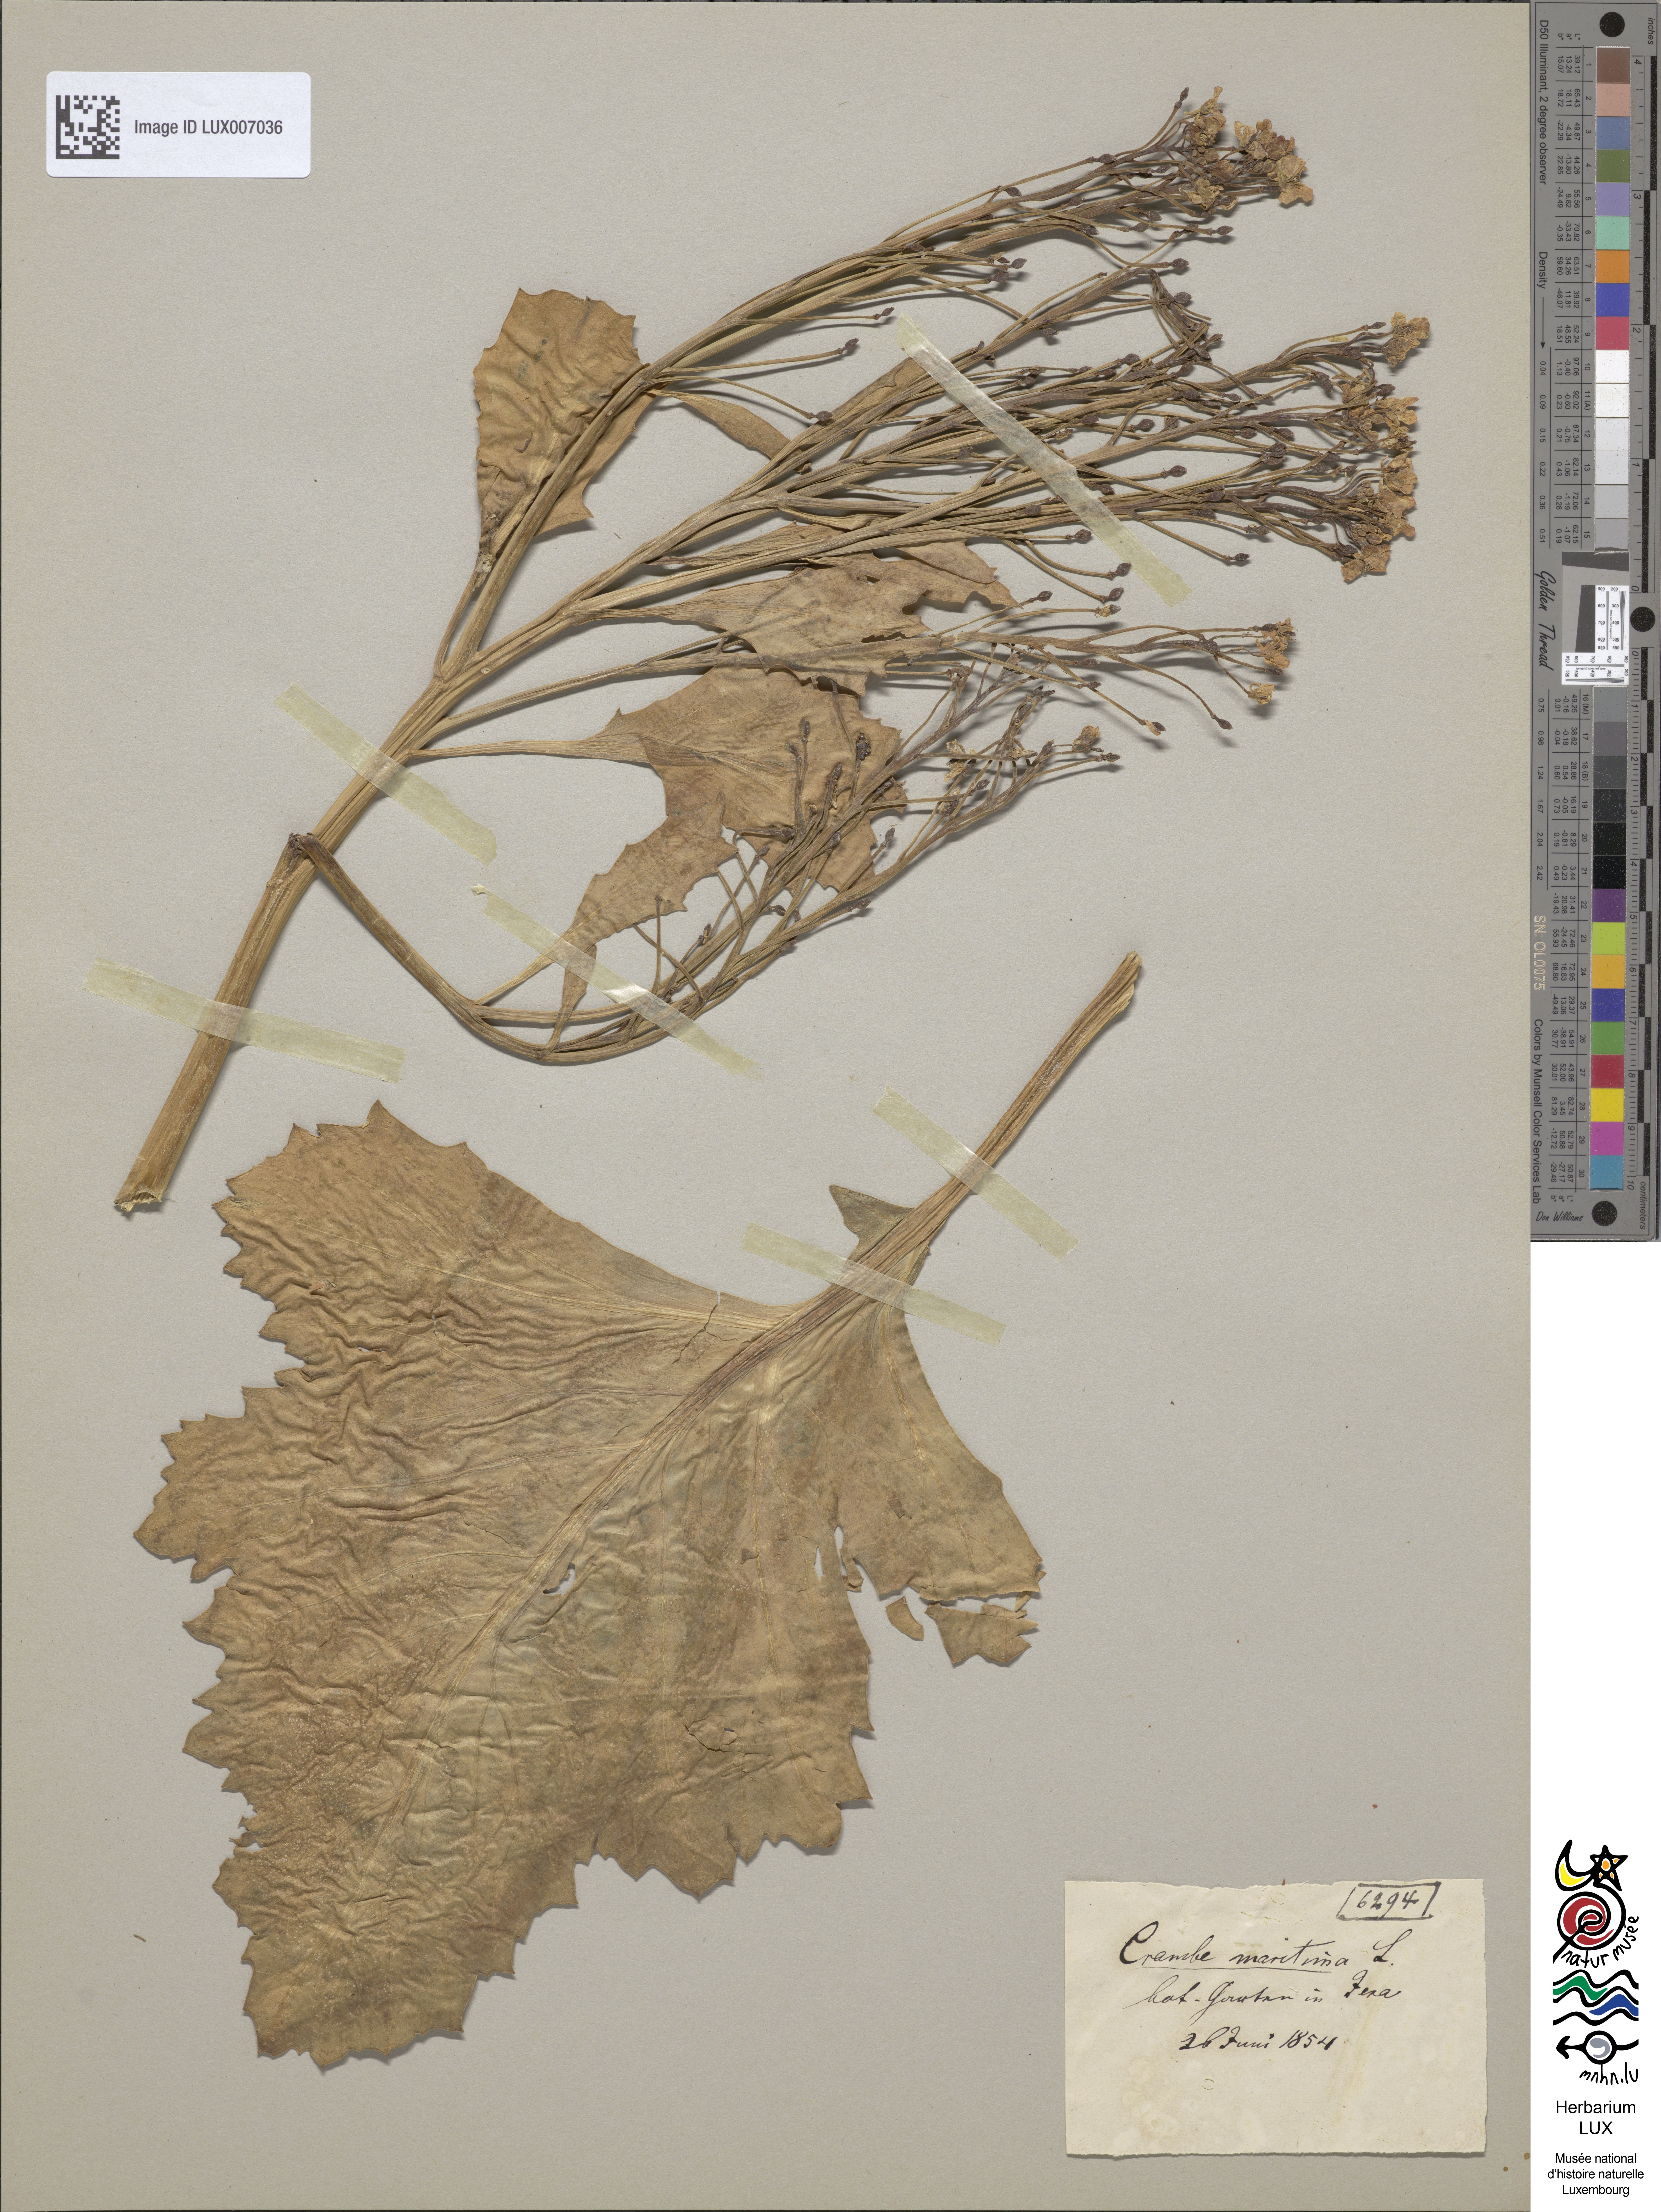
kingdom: Plantae
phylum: Tracheophyta
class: Magnoliopsida
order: Brassicales
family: Brassicaceae
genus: Crambe
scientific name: Crambe maritima
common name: Sea-kale
